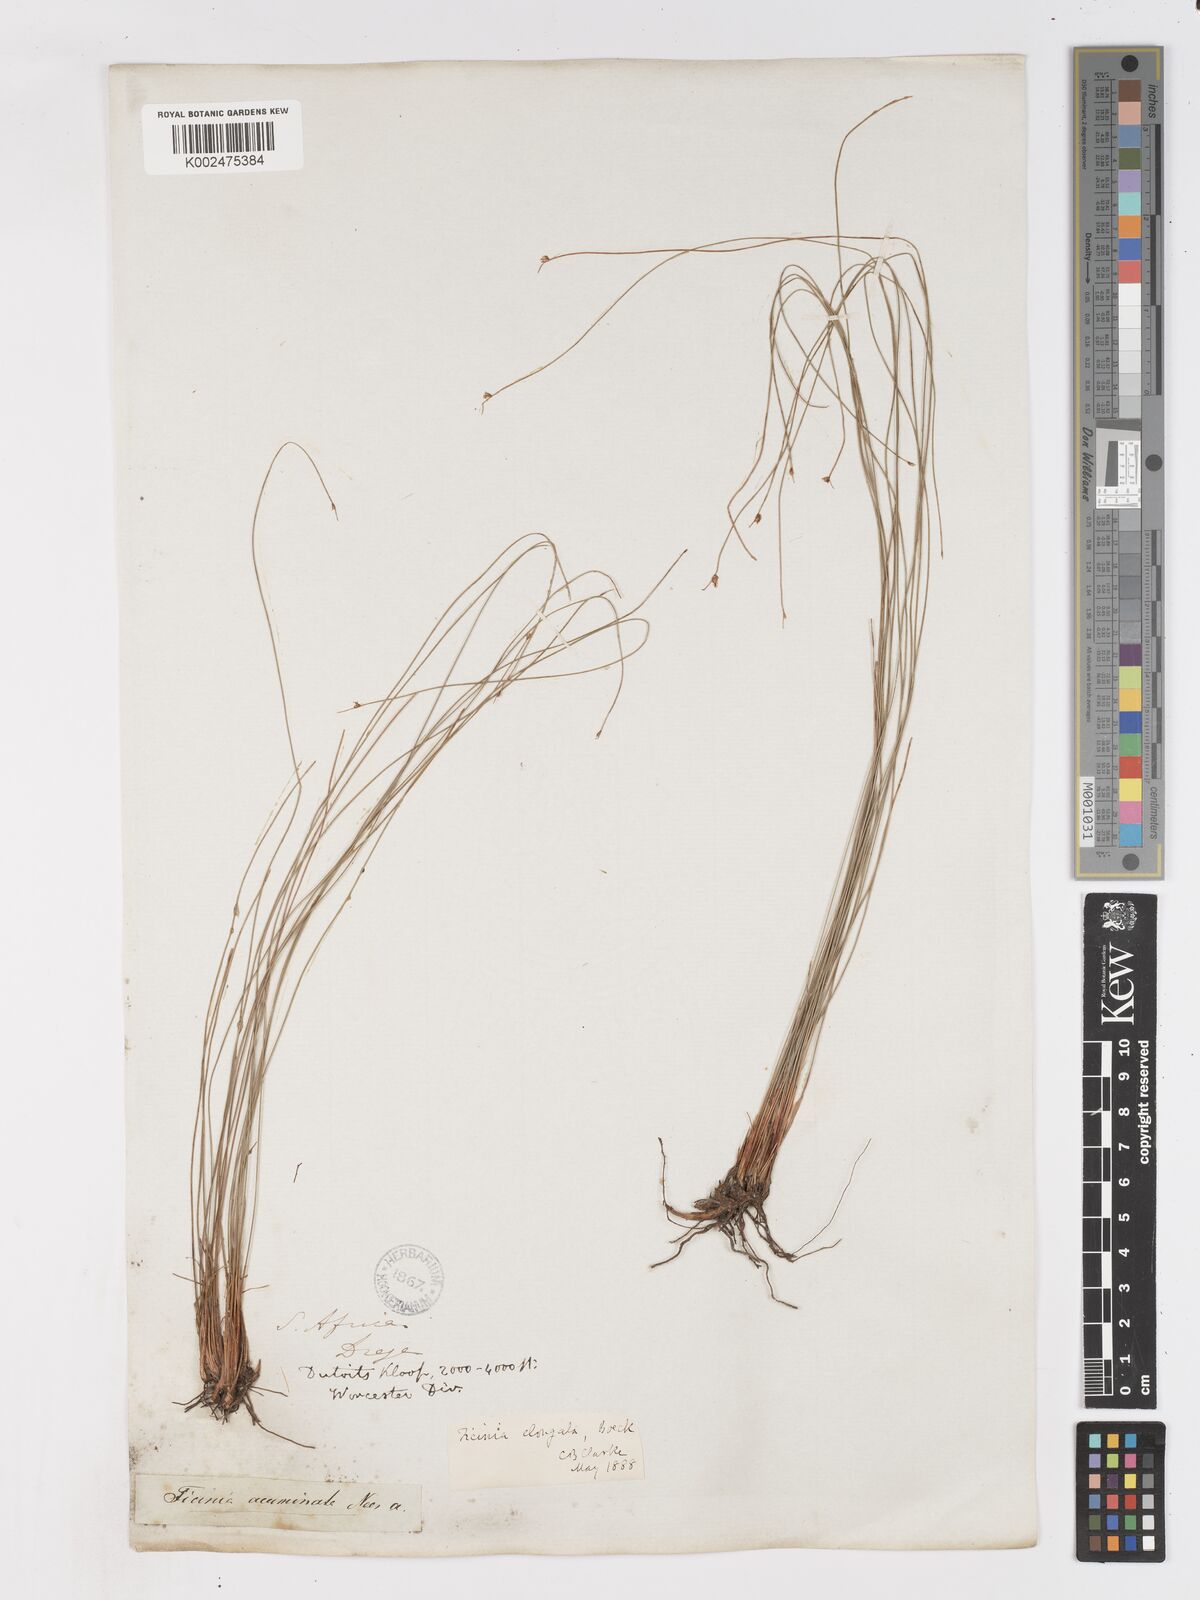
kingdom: Plantae
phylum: Tracheophyta
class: Liliopsida
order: Poales
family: Cyperaceae
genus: Ficinia
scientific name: Ficinia acuminata
